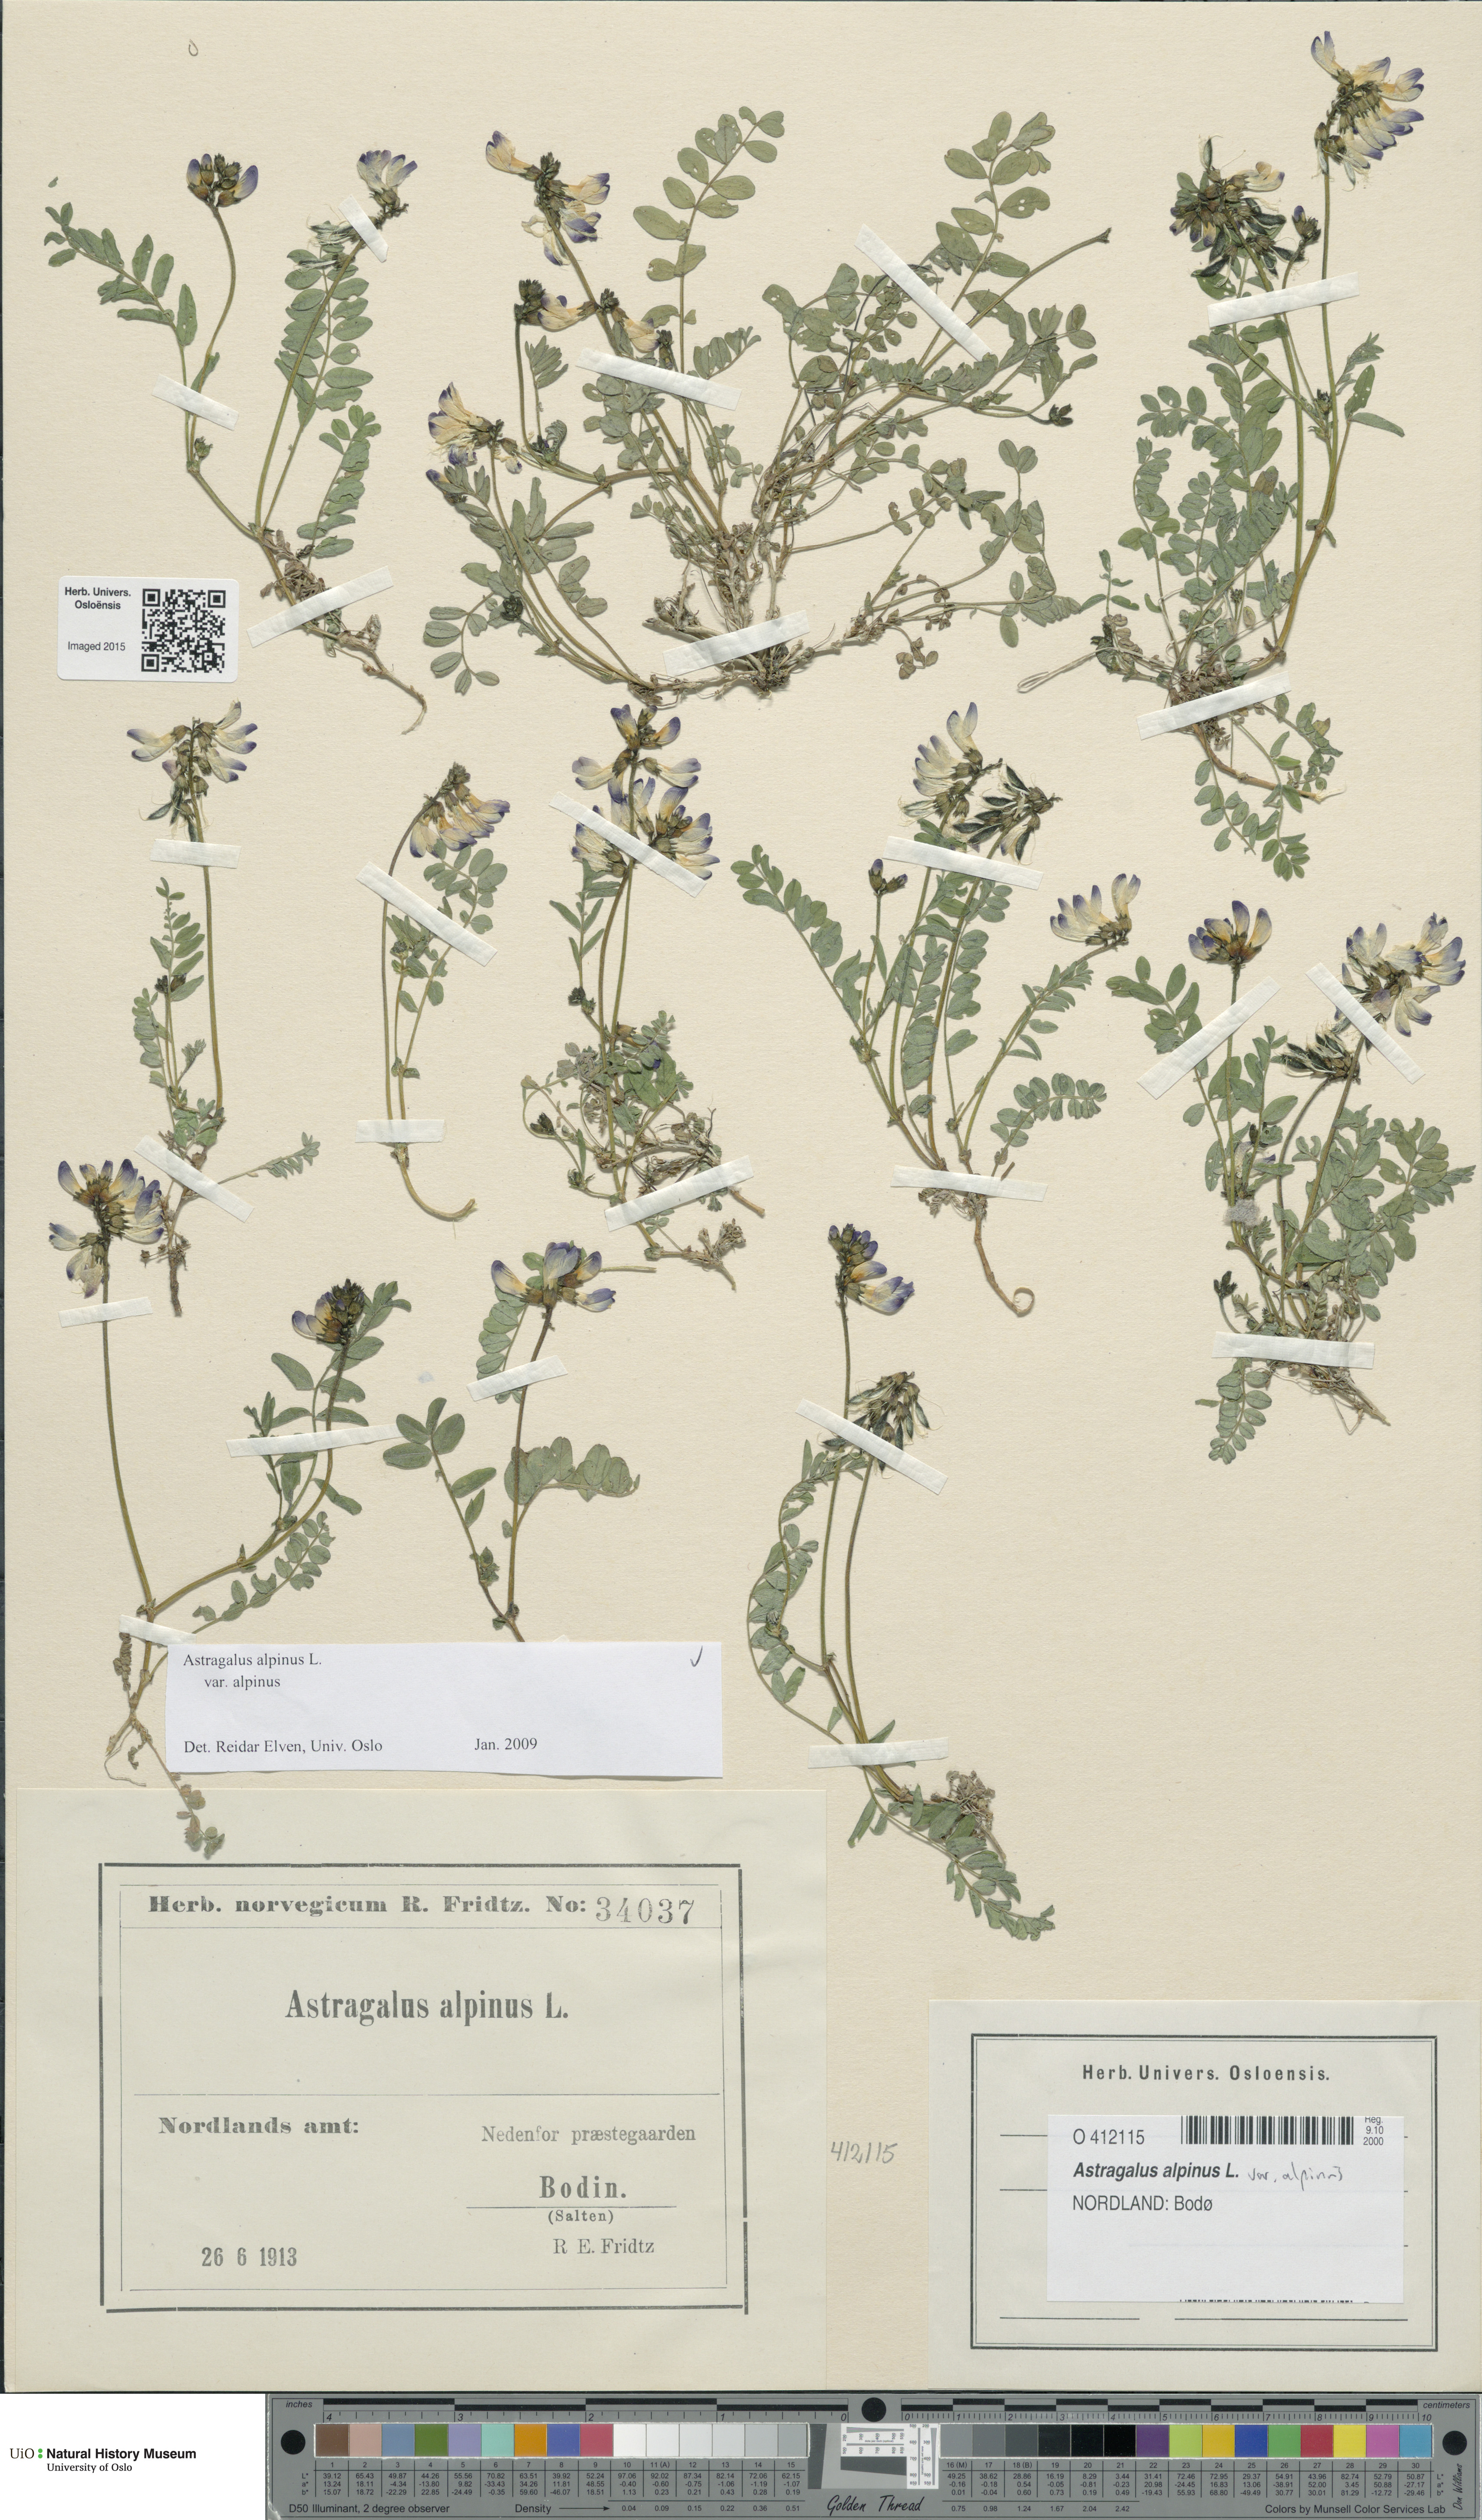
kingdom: Plantae
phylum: Tracheophyta
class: Magnoliopsida
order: Fabales
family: Fabaceae
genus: Astragalus
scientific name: Astragalus alpinus
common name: Alpine milk-vetch
